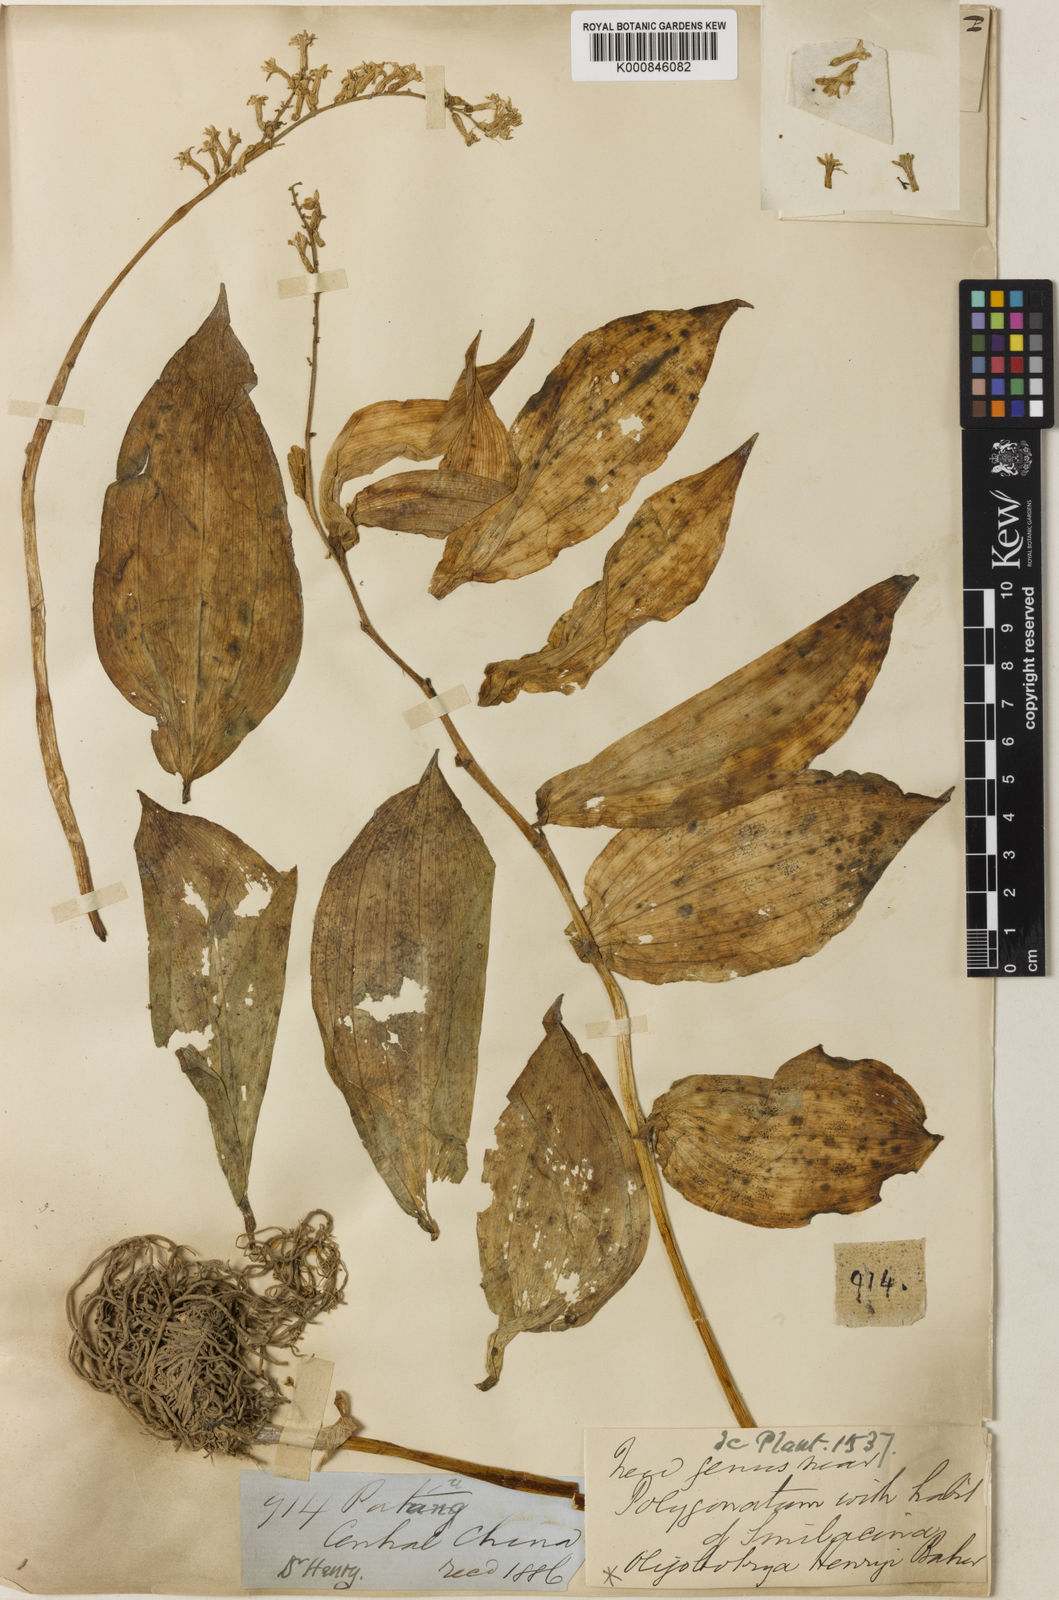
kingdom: Plantae
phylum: Tracheophyta
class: Liliopsida
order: Asparagales
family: Asparagaceae
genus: Maianthemum
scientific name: Maianthemum henryi
